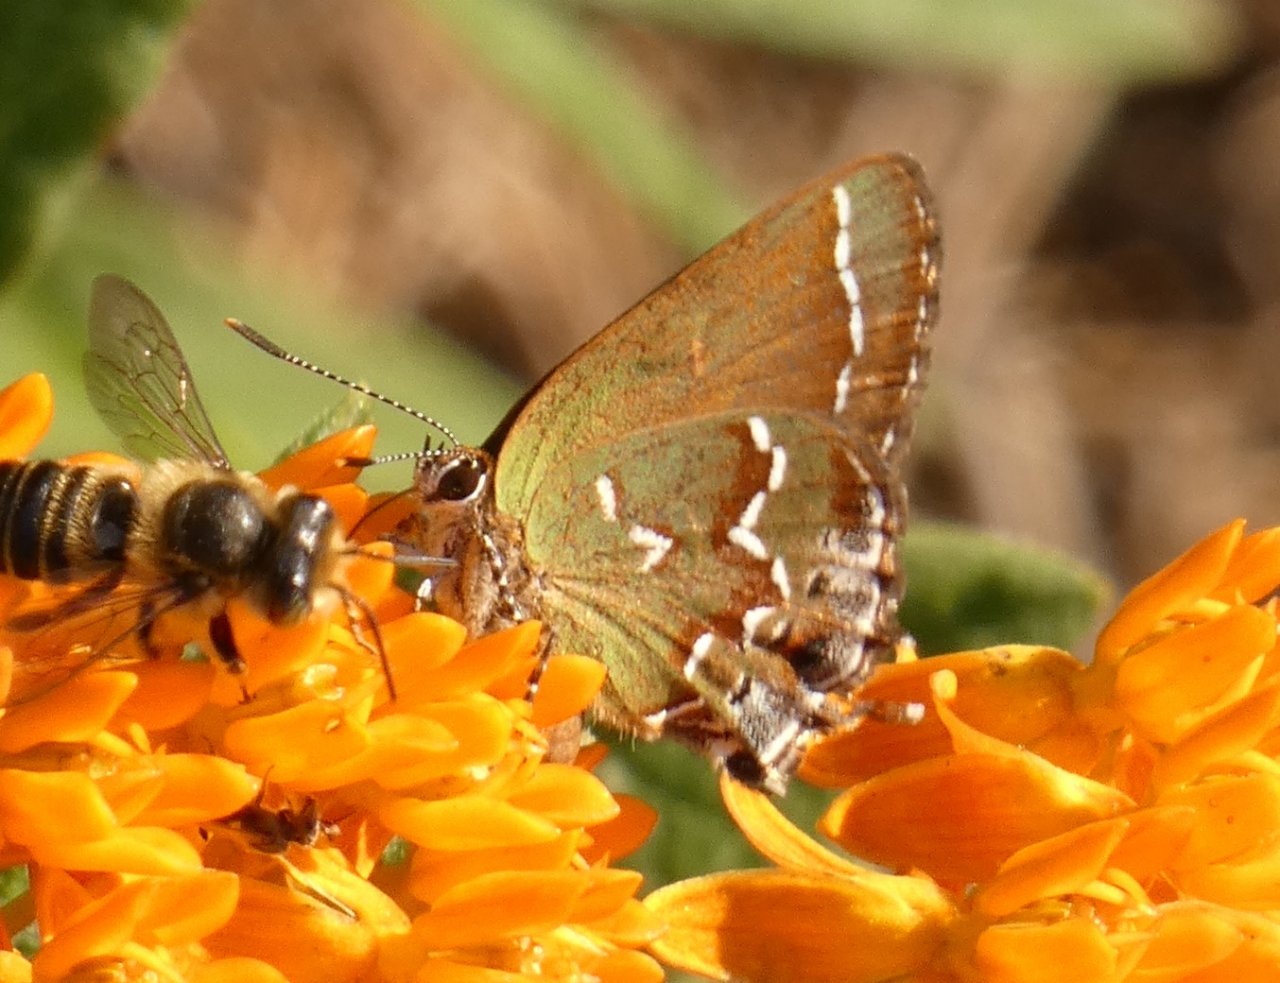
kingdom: Animalia
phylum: Arthropoda
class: Insecta
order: Lepidoptera
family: Lycaenidae
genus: Mitoura
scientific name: Mitoura gryneus
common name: Juniper Hairstreak
